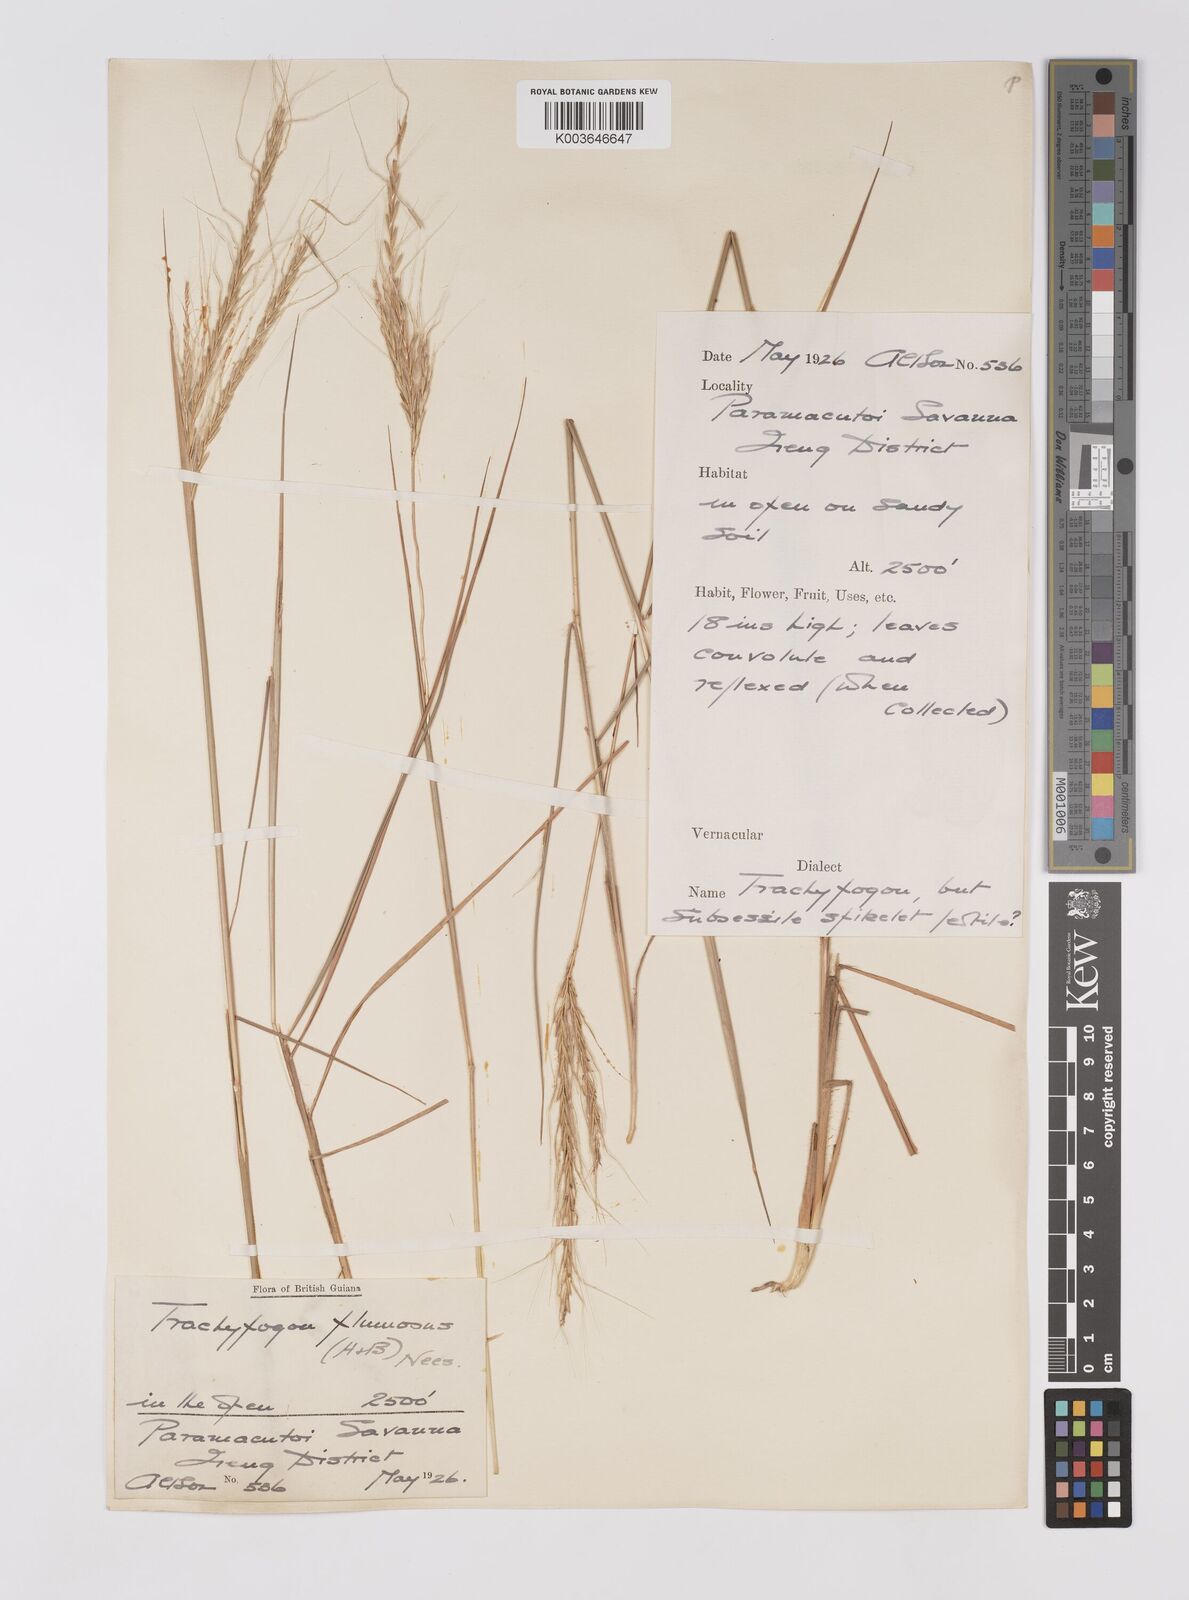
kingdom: Plantae
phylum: Tracheophyta
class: Liliopsida
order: Poales
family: Poaceae
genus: Trachypogon
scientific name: Trachypogon spicatus
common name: Crinkle-awn
